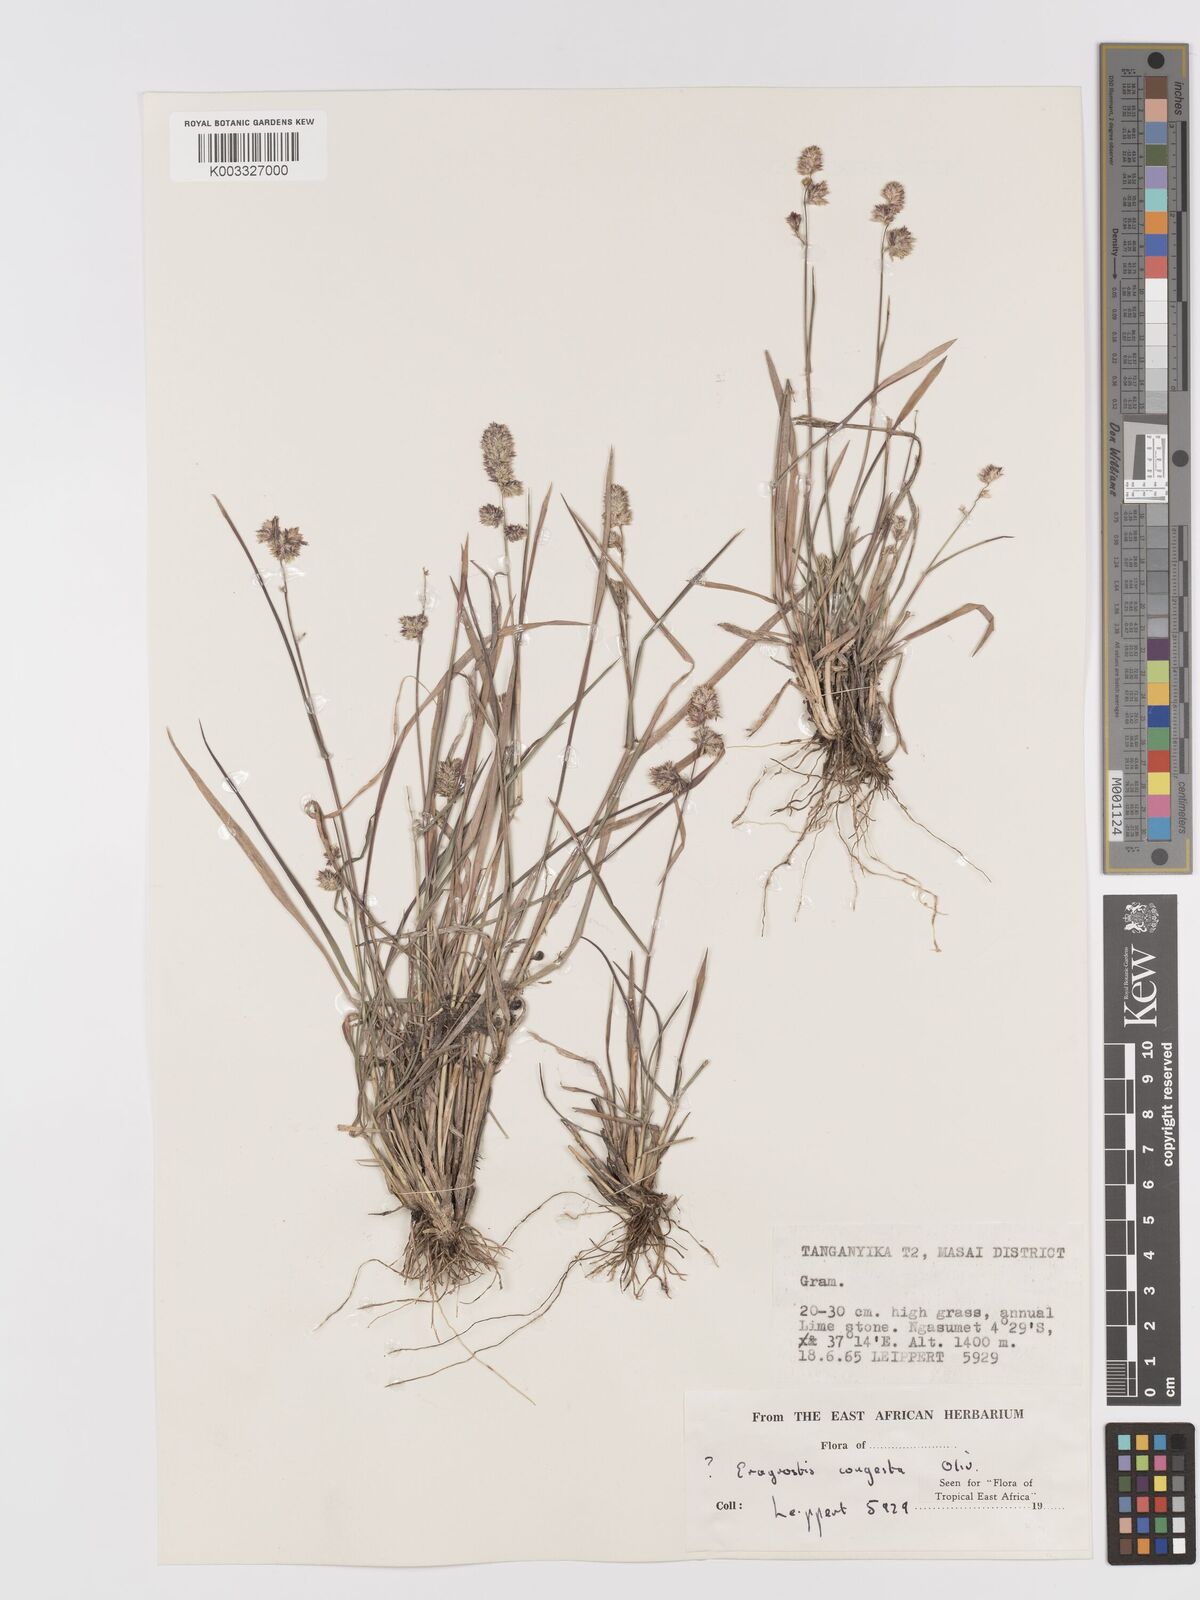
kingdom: Plantae
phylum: Tracheophyta
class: Liliopsida
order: Poales
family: Poaceae
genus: Eragrostis
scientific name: Eragrostis congesta
